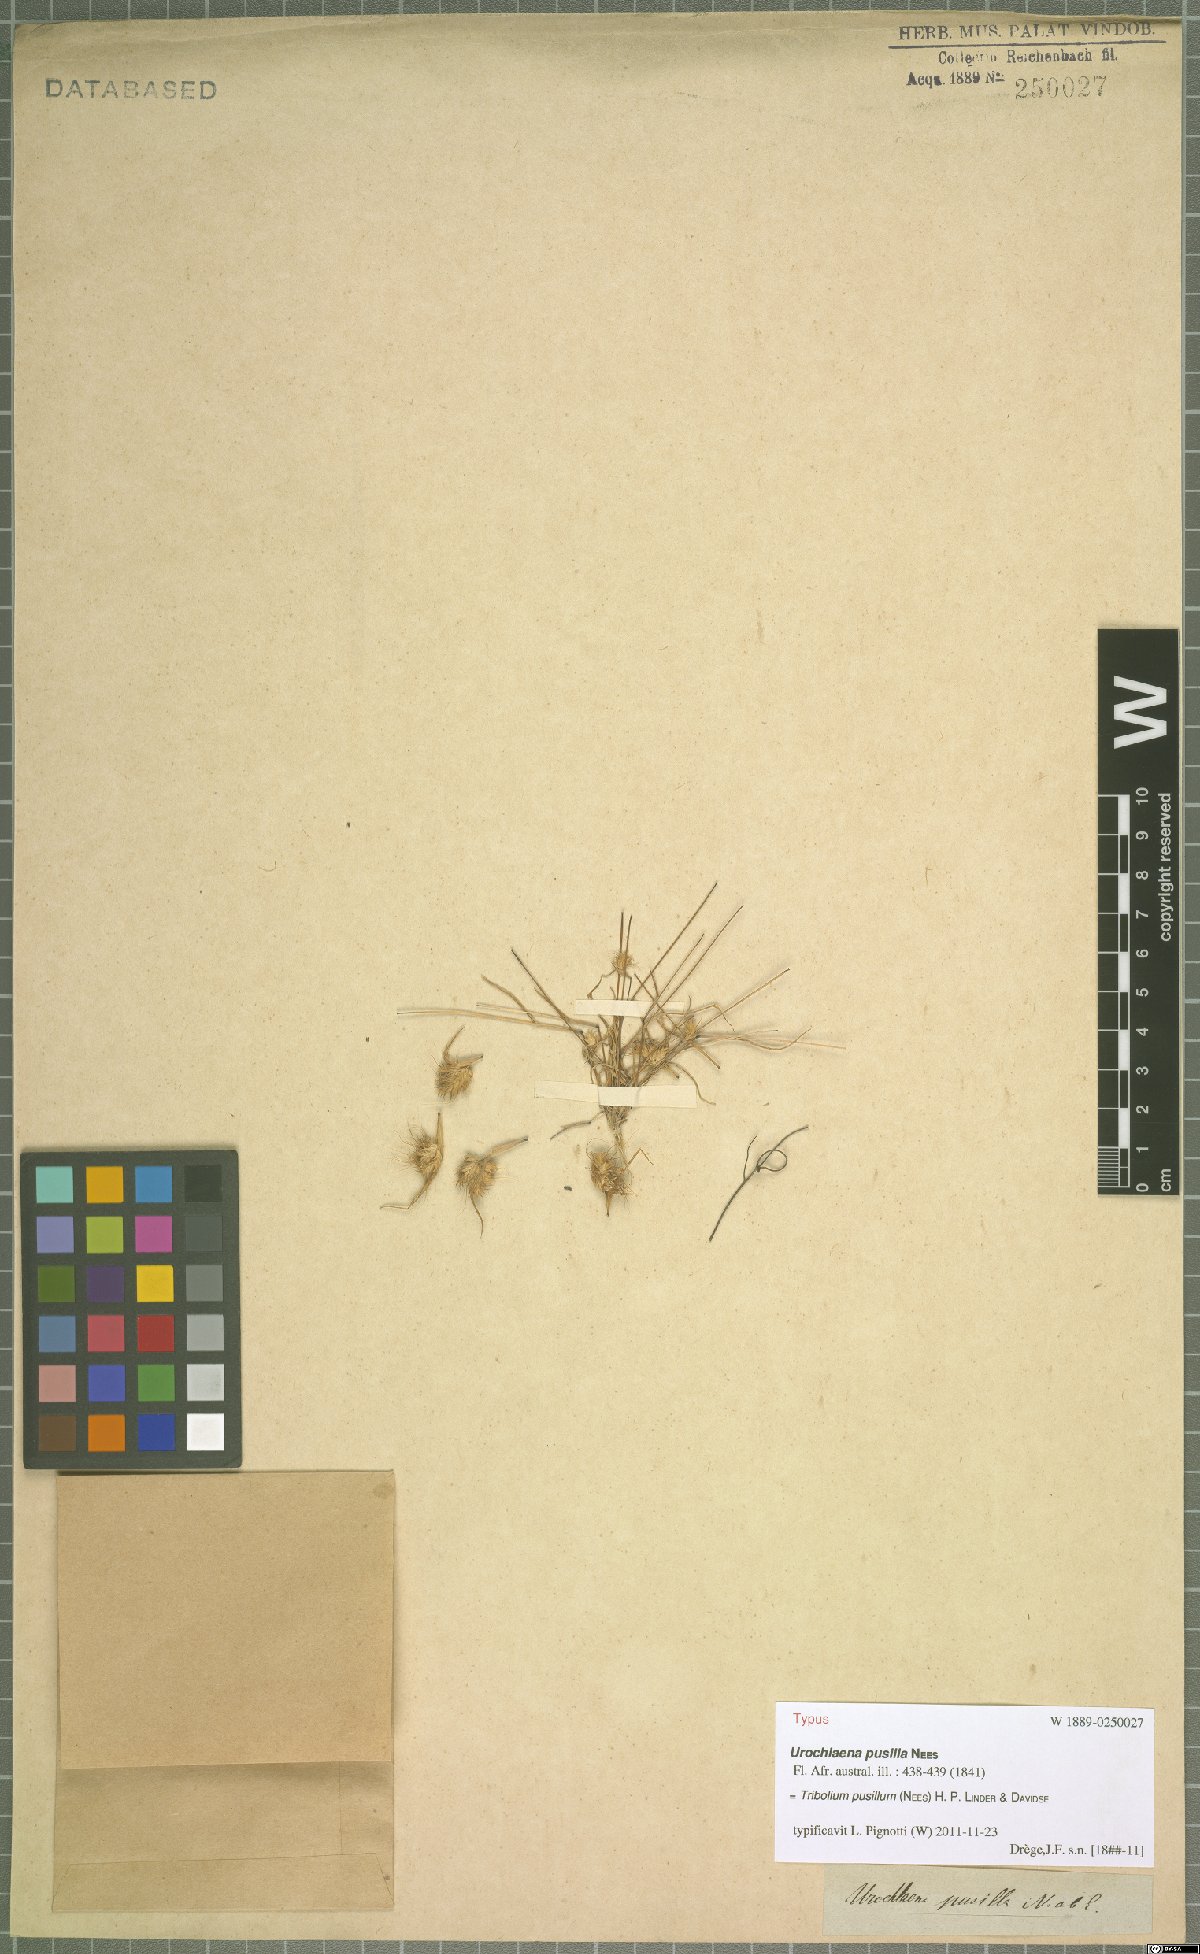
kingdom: Plantae
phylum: Tracheophyta
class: Liliopsida
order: Poales
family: Poaceae
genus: Tribolium
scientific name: Tribolium pusillum
